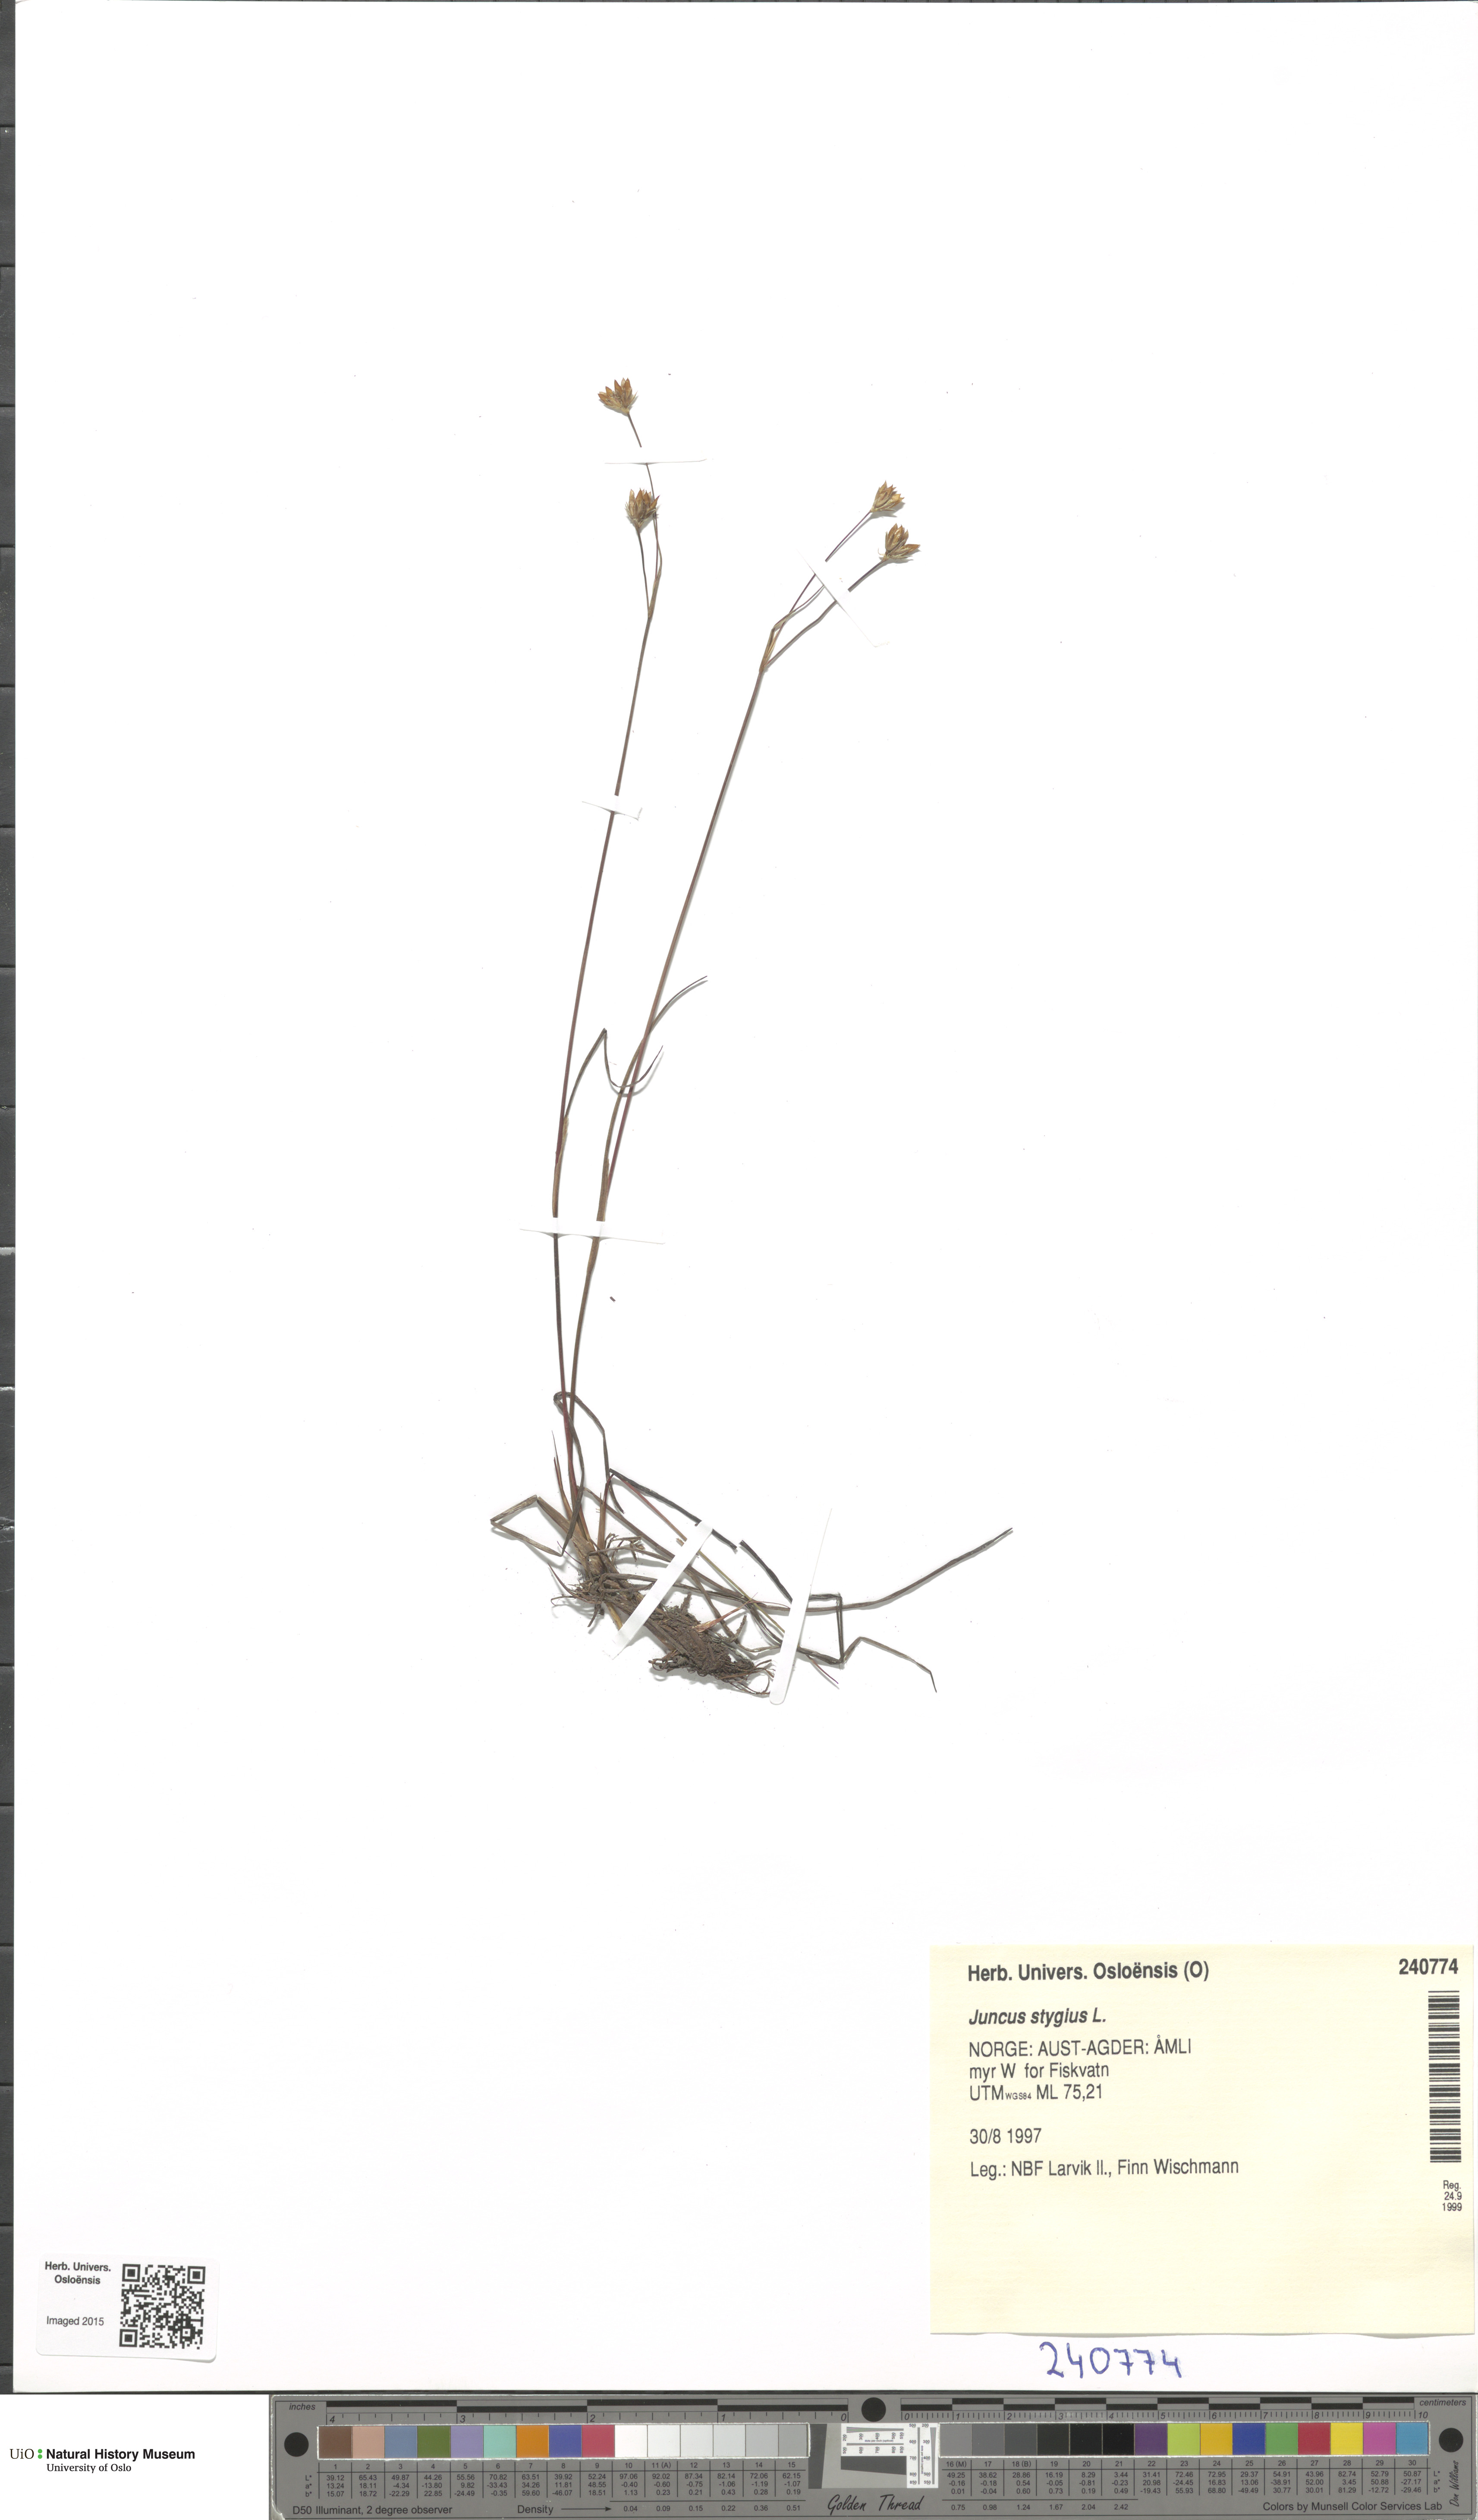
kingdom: Plantae
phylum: Tracheophyta
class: Liliopsida
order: Poales
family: Juncaceae
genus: Juncus
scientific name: Juncus stygius
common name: Bog rush
